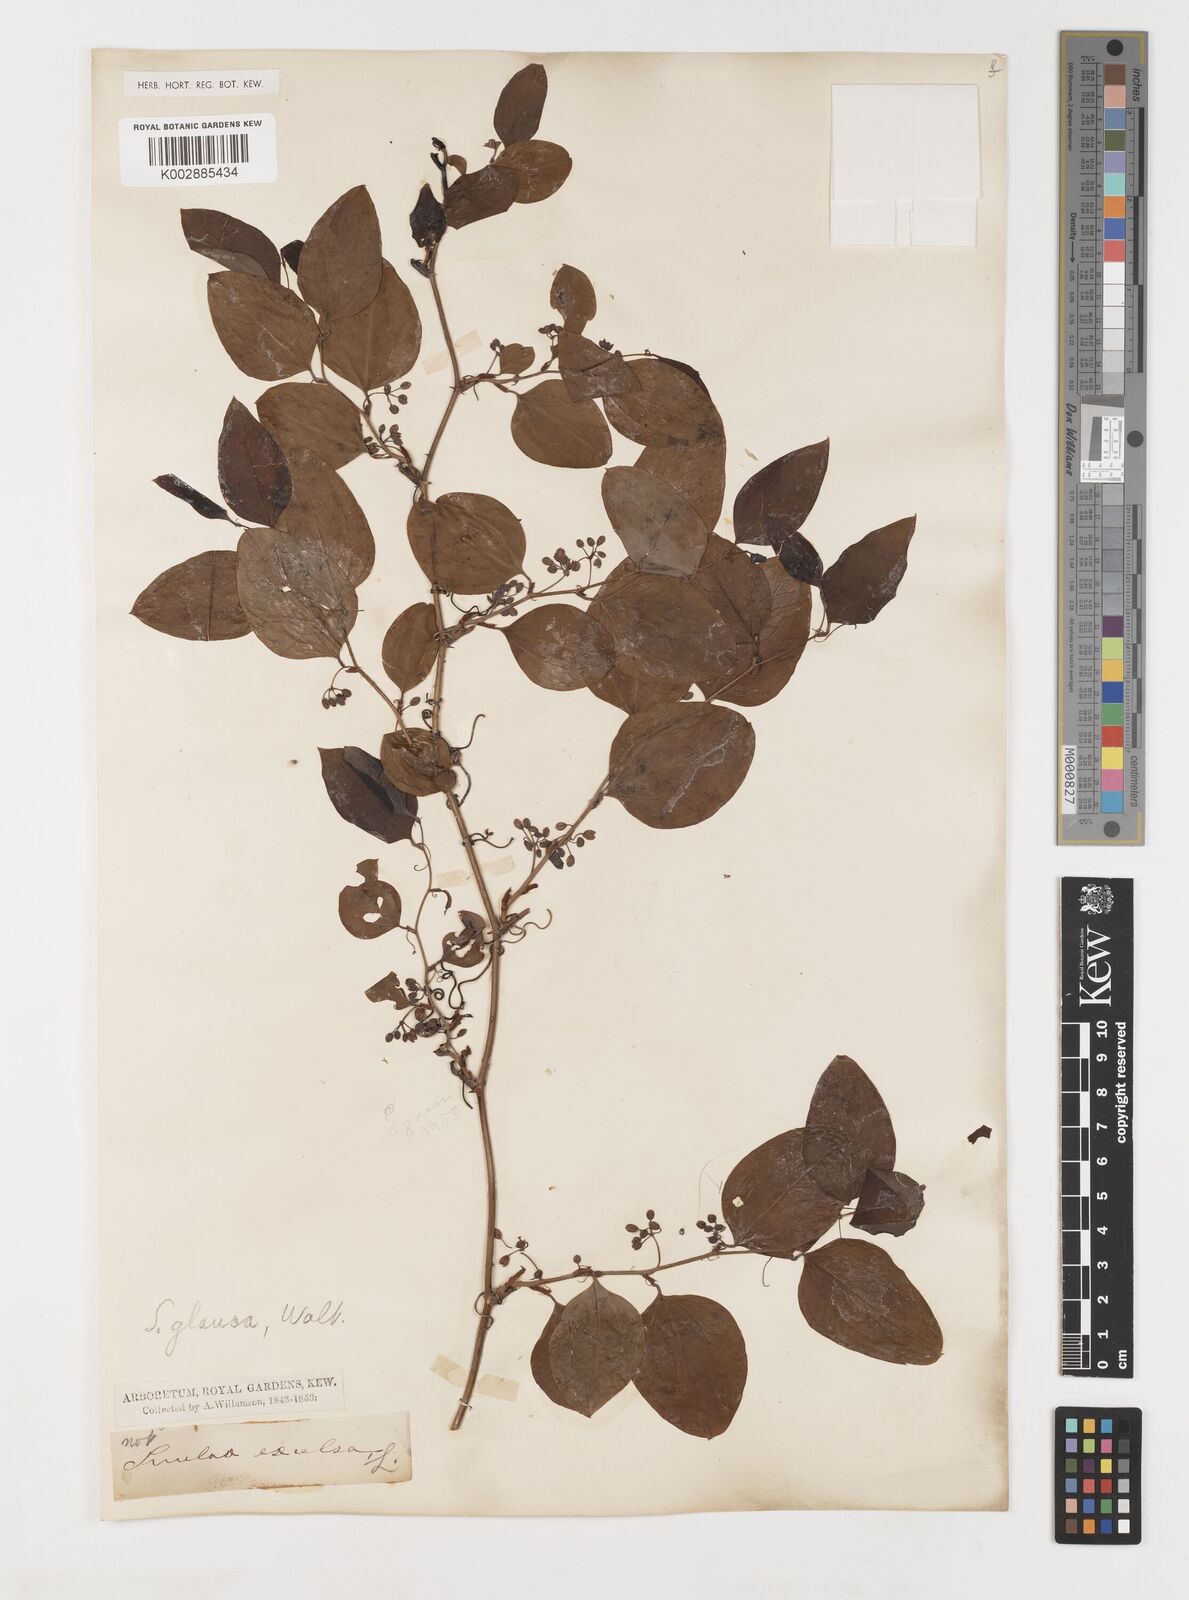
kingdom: Plantae
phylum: Tracheophyta
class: Liliopsida
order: Liliales
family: Smilacaceae
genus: Smilax
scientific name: Smilax glauca
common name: Cat greenbrier
